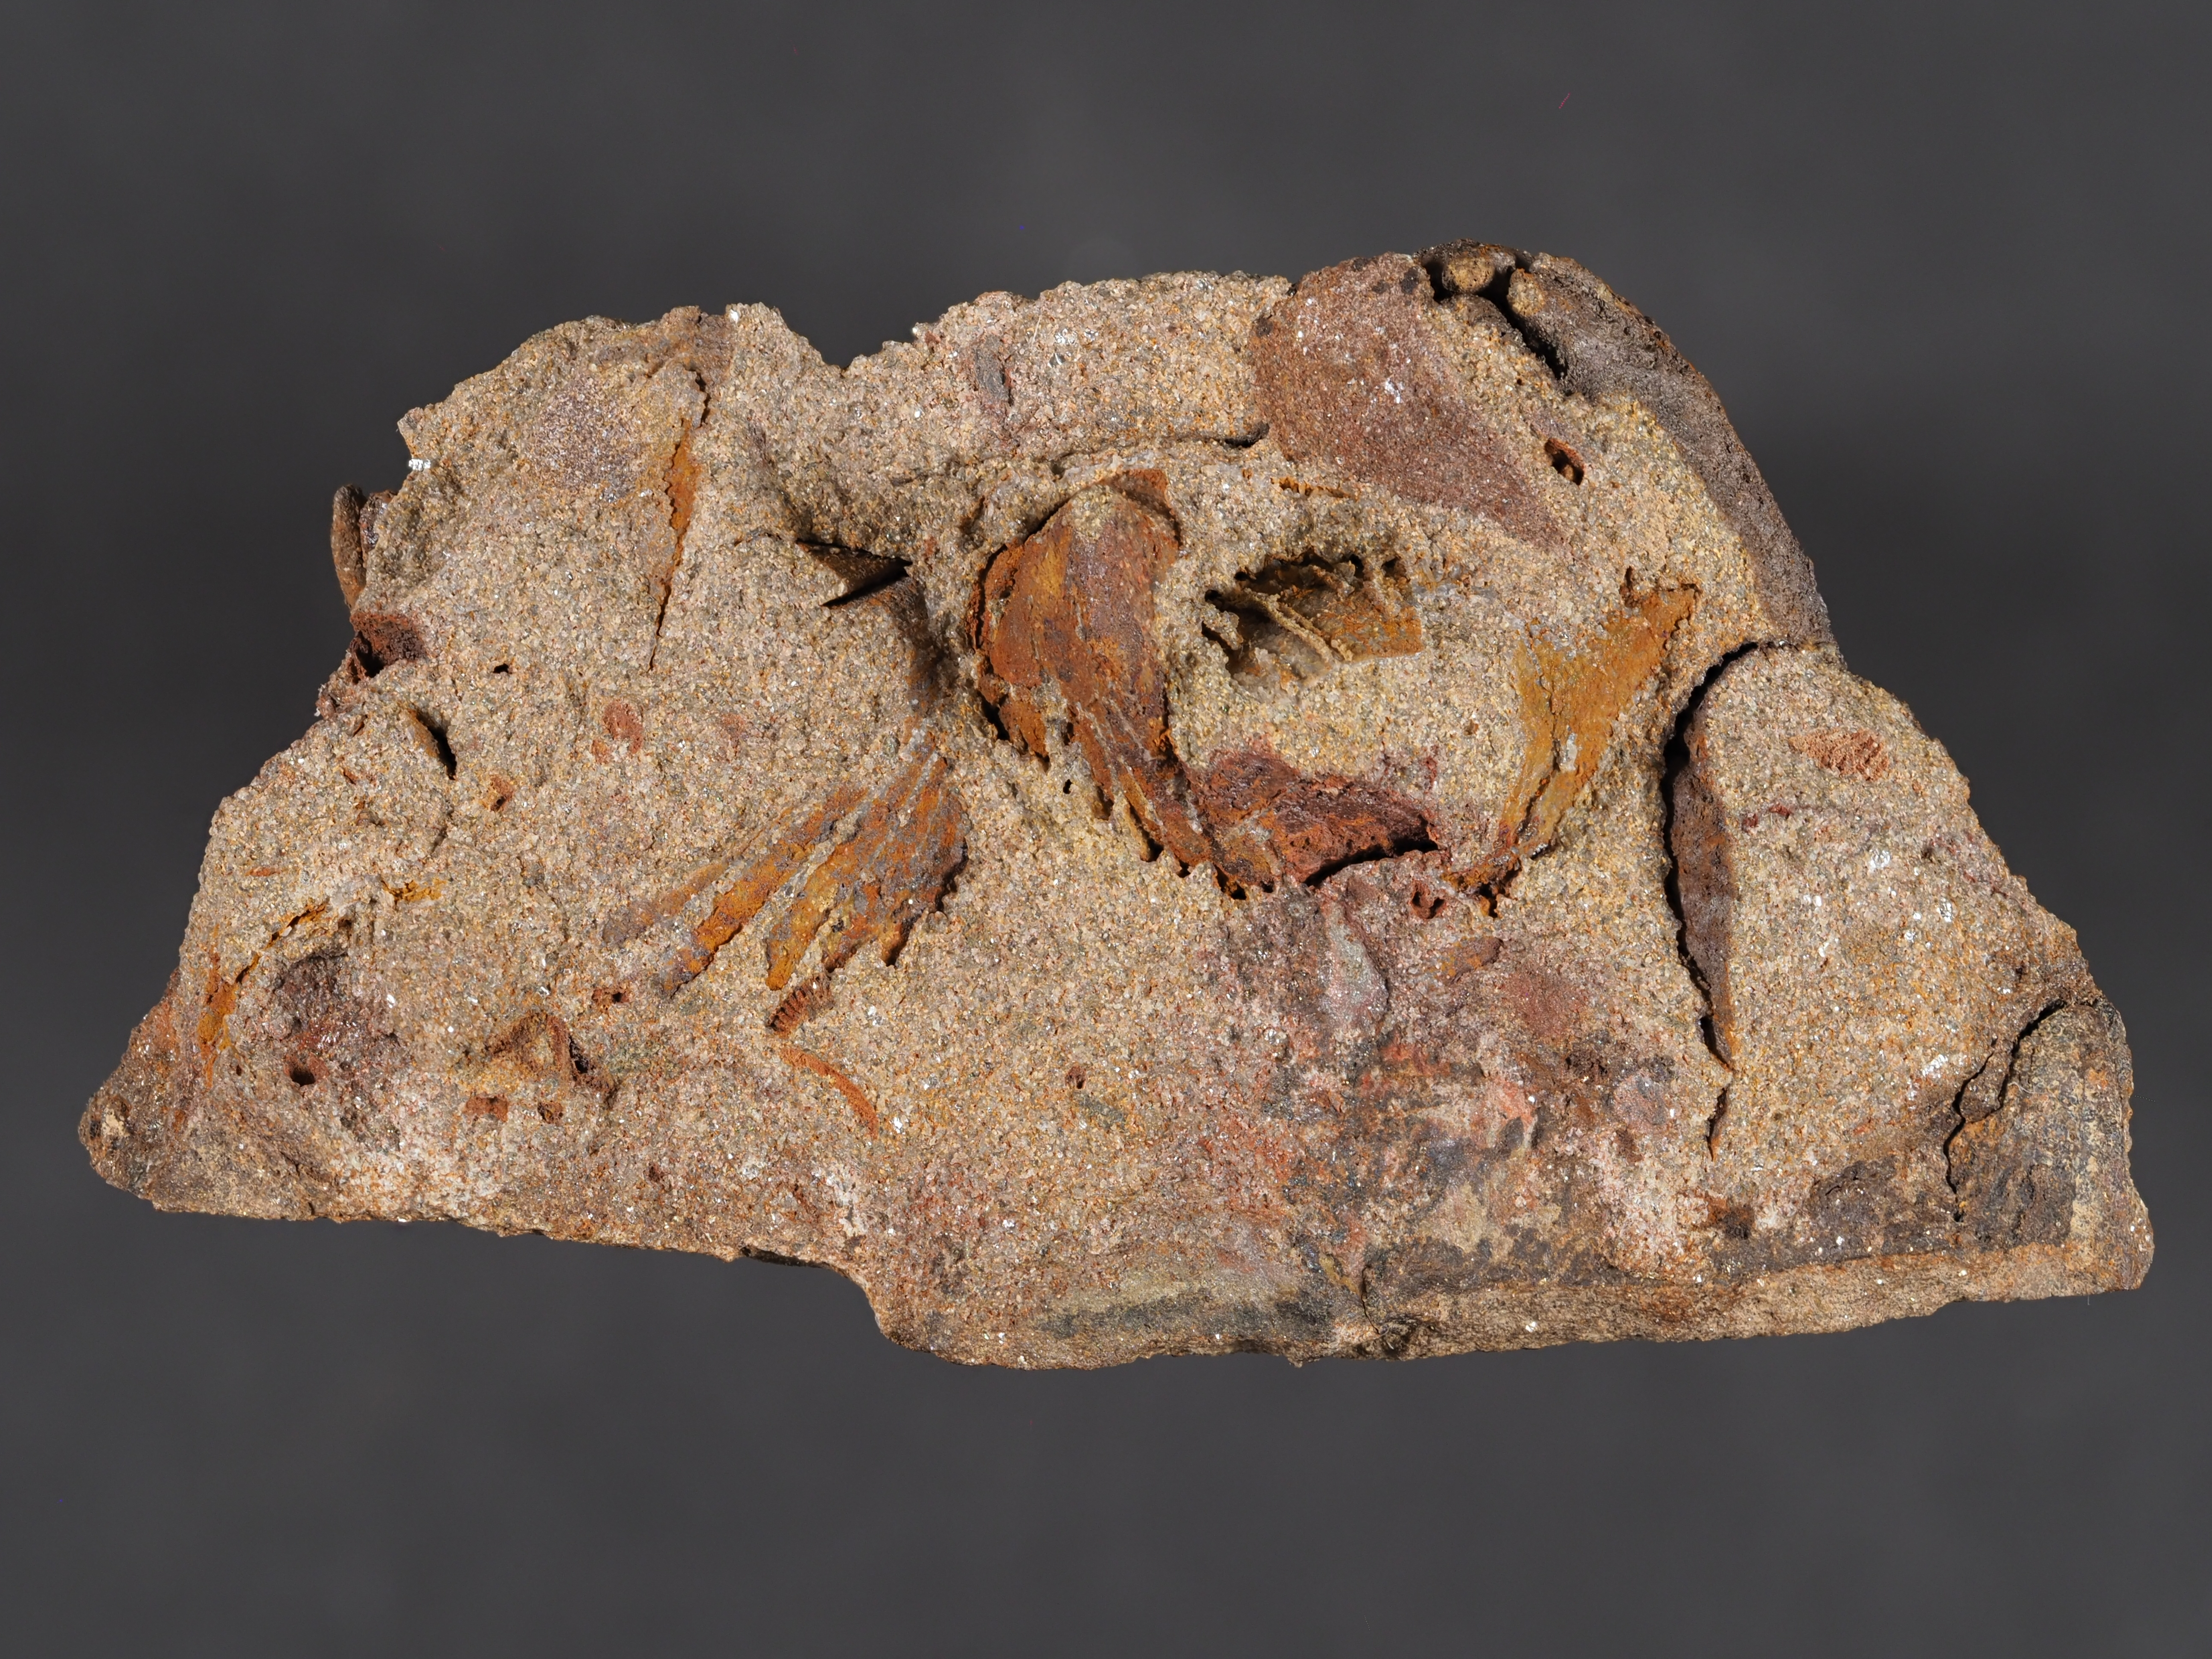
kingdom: Animalia
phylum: Brachiopoda
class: Rhynchonellata
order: Rhynchonellida
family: Trigonirhynchiidae
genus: Oligoptycherhynchus
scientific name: Oligoptycherhynchus
